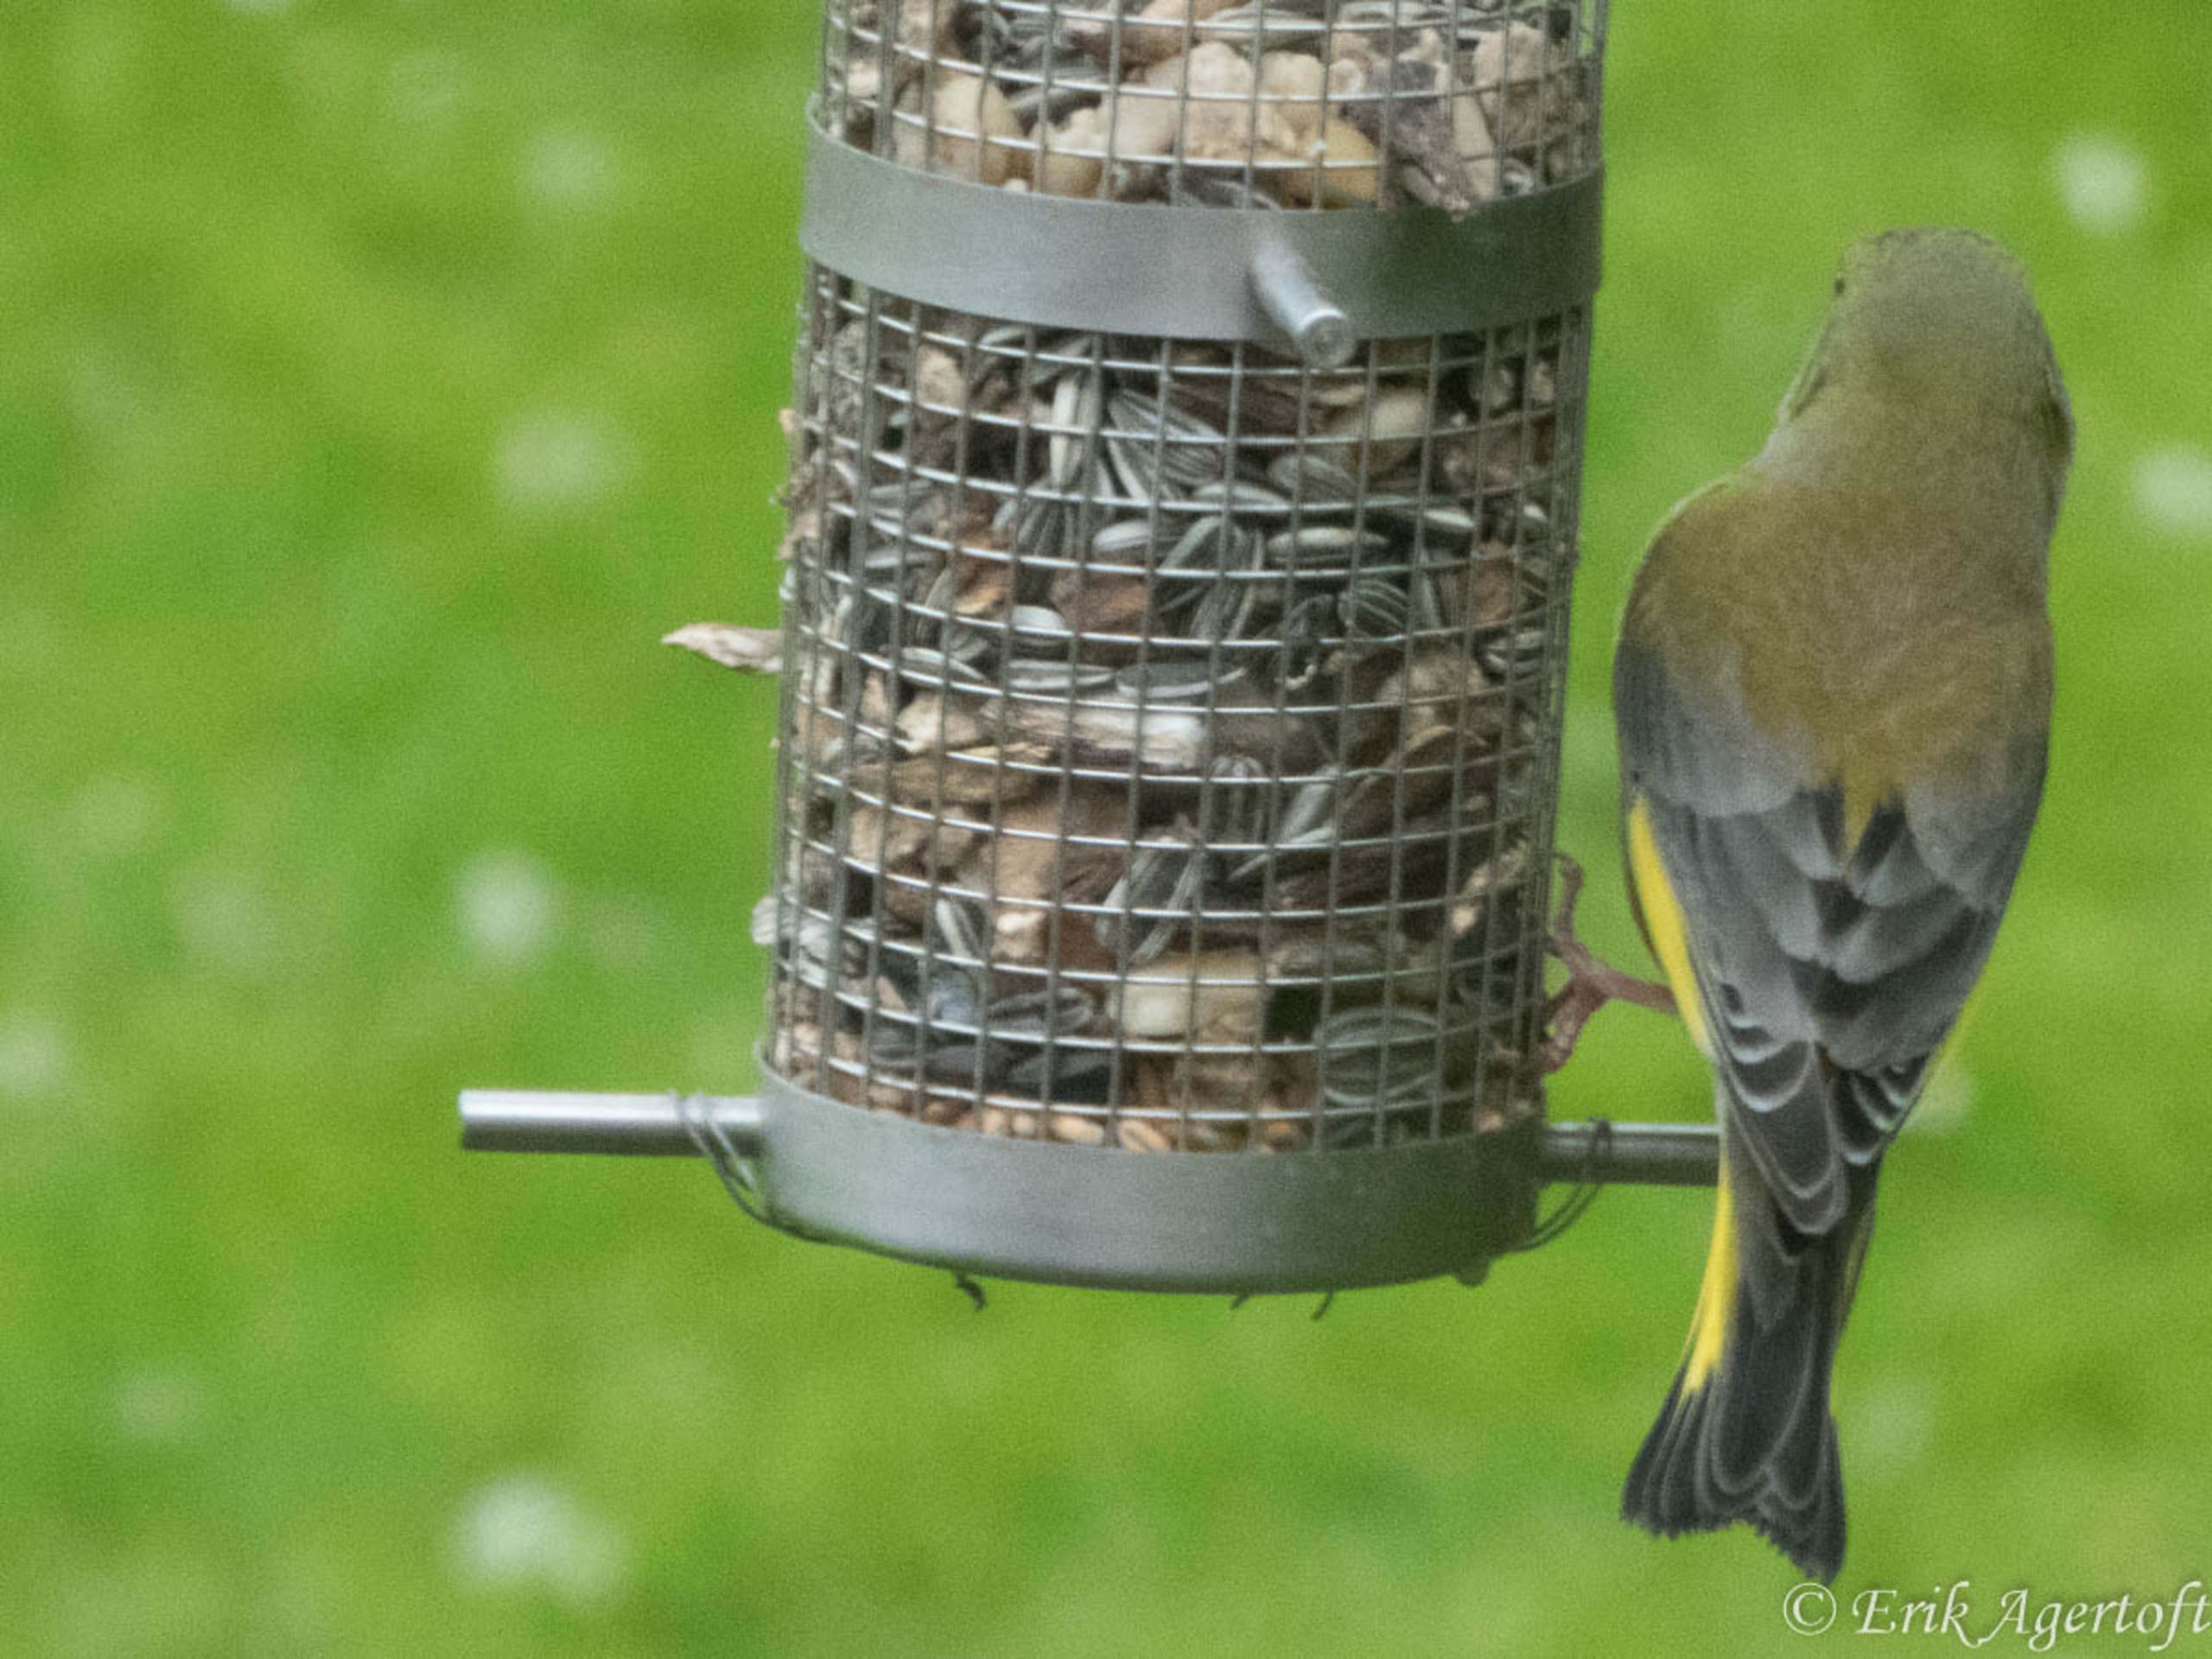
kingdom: Plantae
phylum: Tracheophyta
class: Liliopsida
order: Poales
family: Poaceae
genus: Chloris
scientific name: Chloris chloris
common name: Grønirisk
